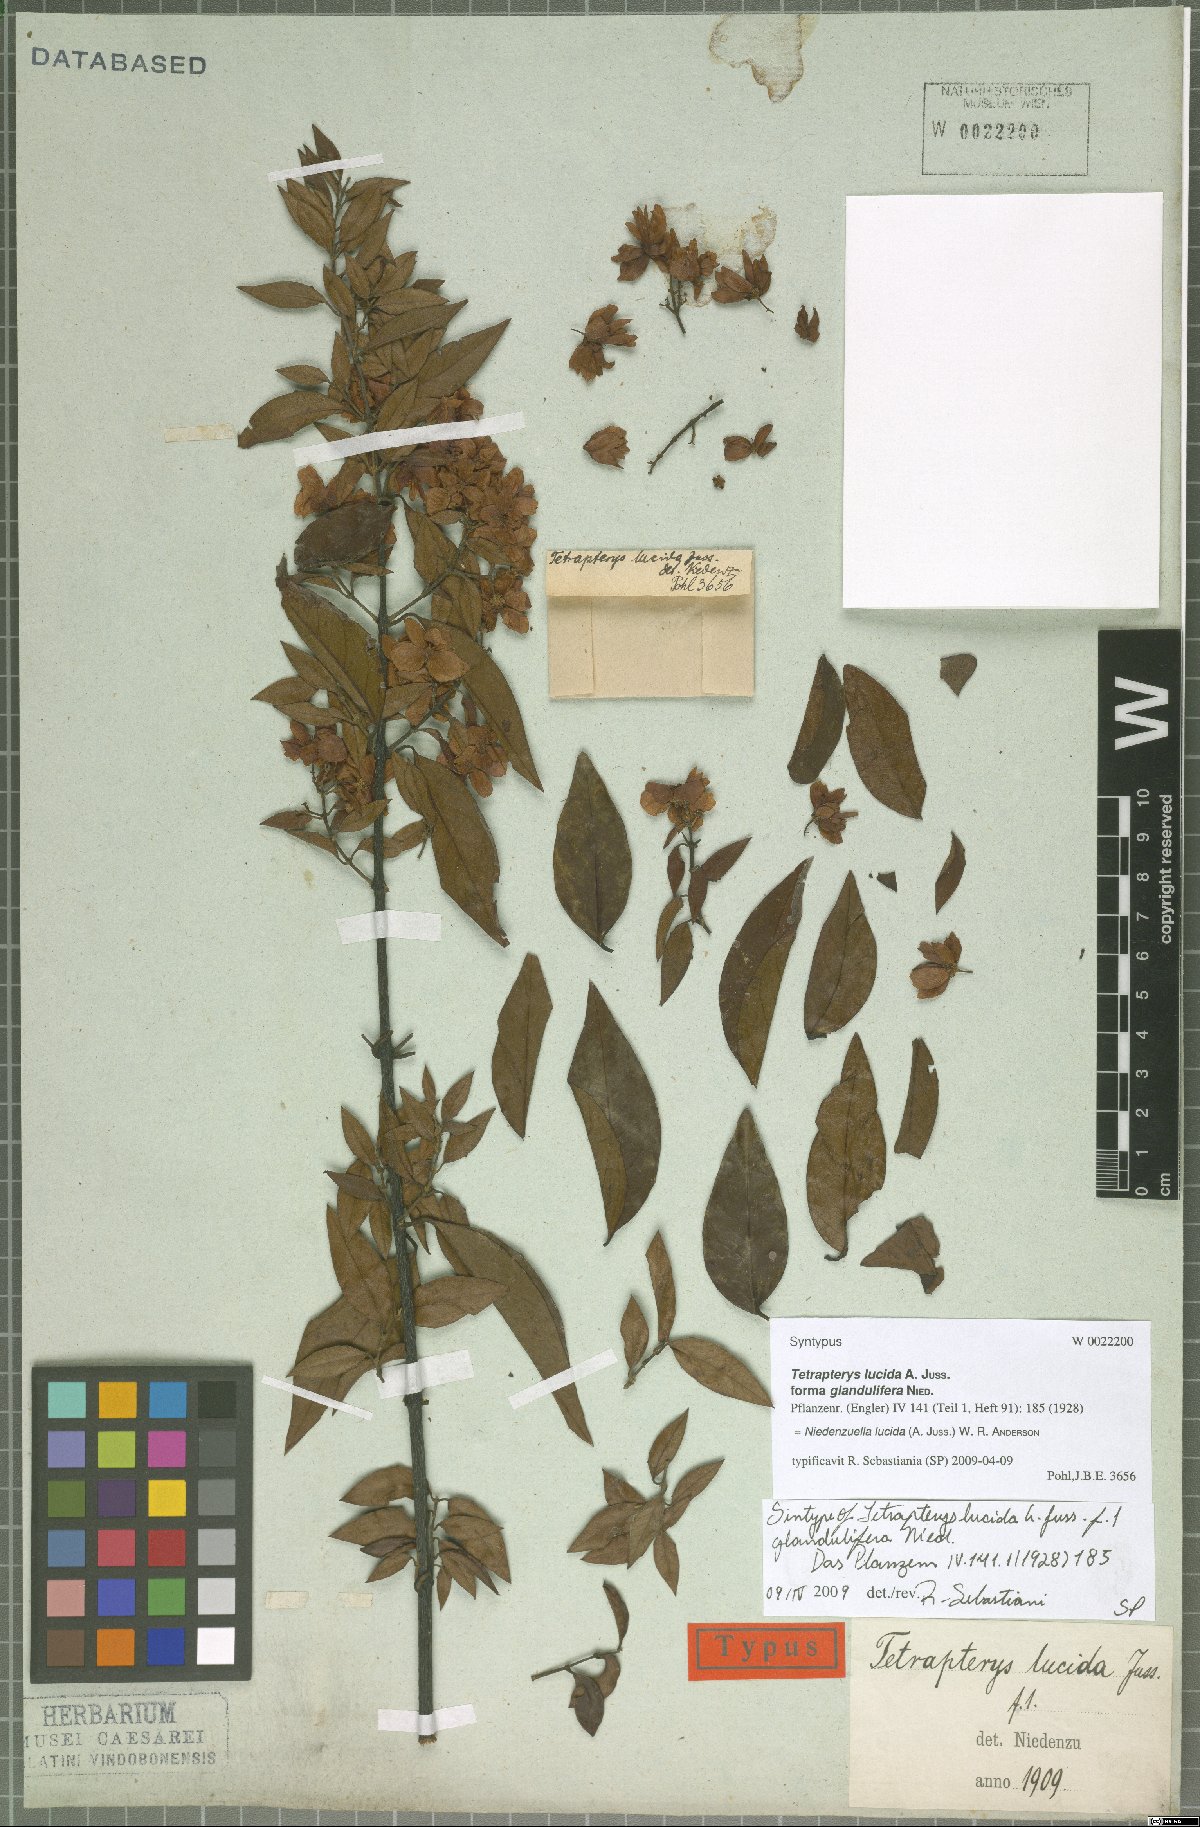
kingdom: Plantae
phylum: Tracheophyta
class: Magnoliopsida
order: Malpighiales
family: Malpighiaceae
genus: Niedenzuella
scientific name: Niedenzuella lucida
